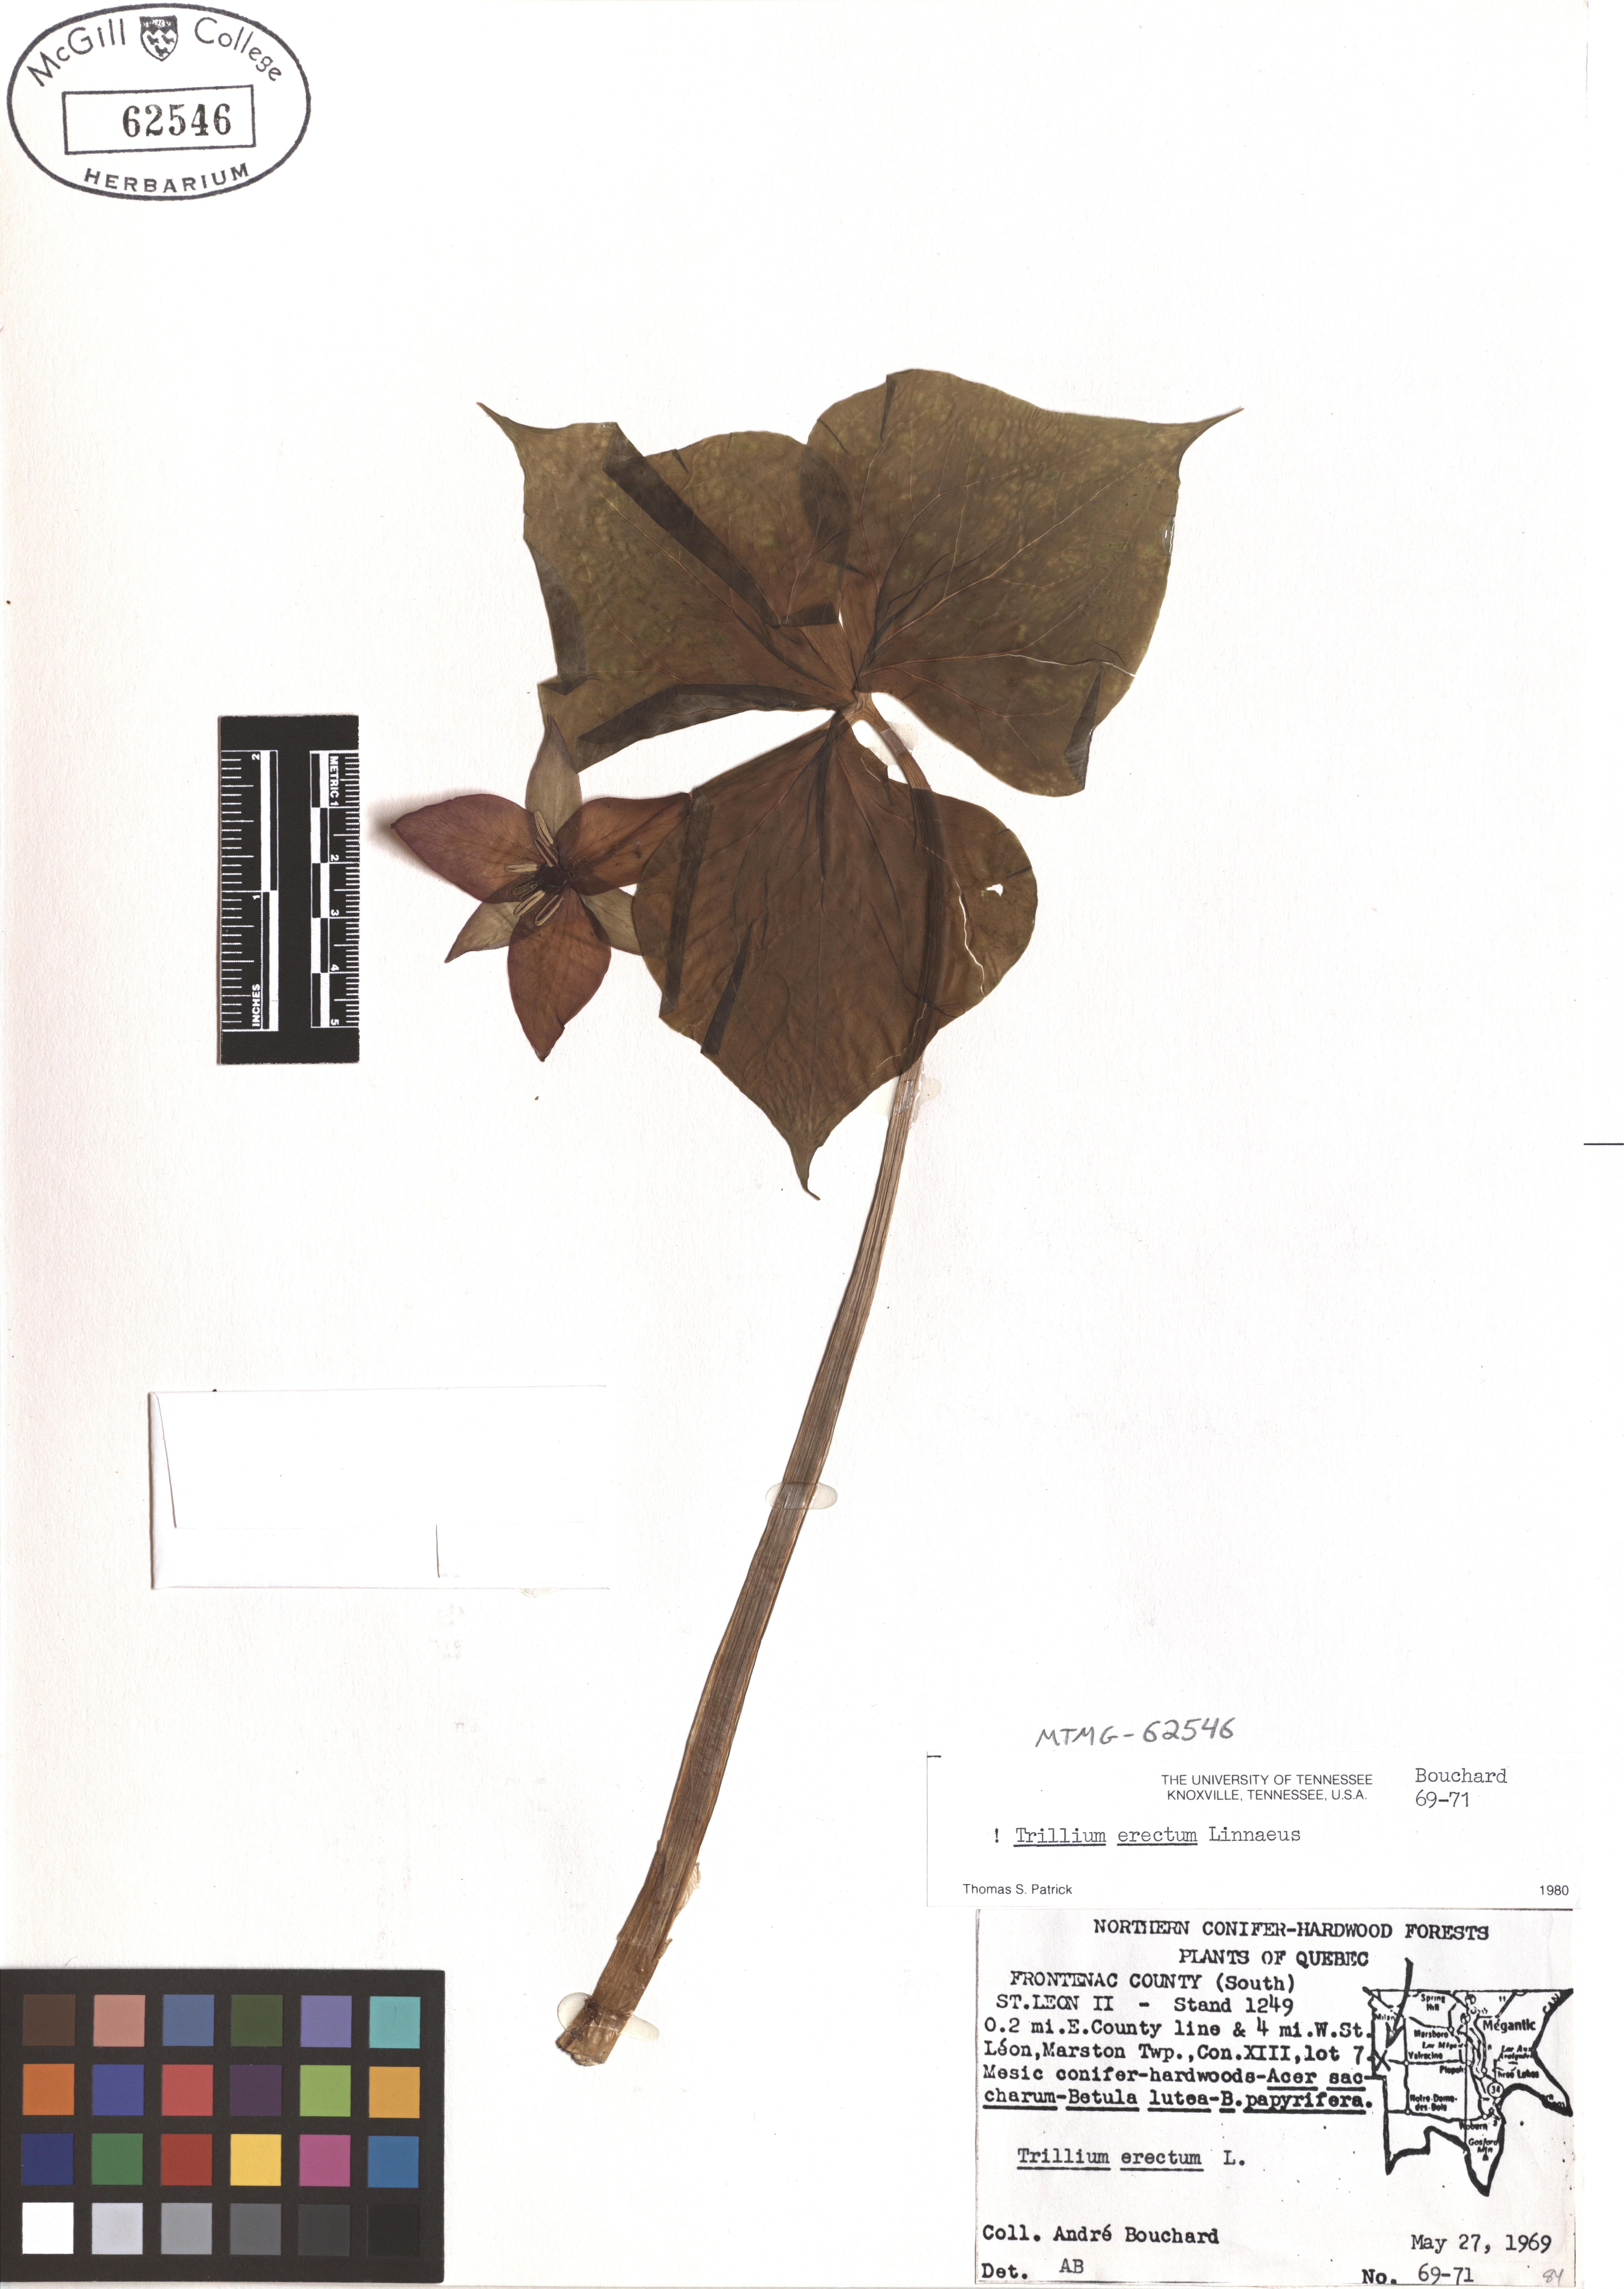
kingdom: Plantae
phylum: Tracheophyta
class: Liliopsida
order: Liliales
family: Melanthiaceae
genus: Trillium
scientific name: Trillium erectum
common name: Purple trillium
